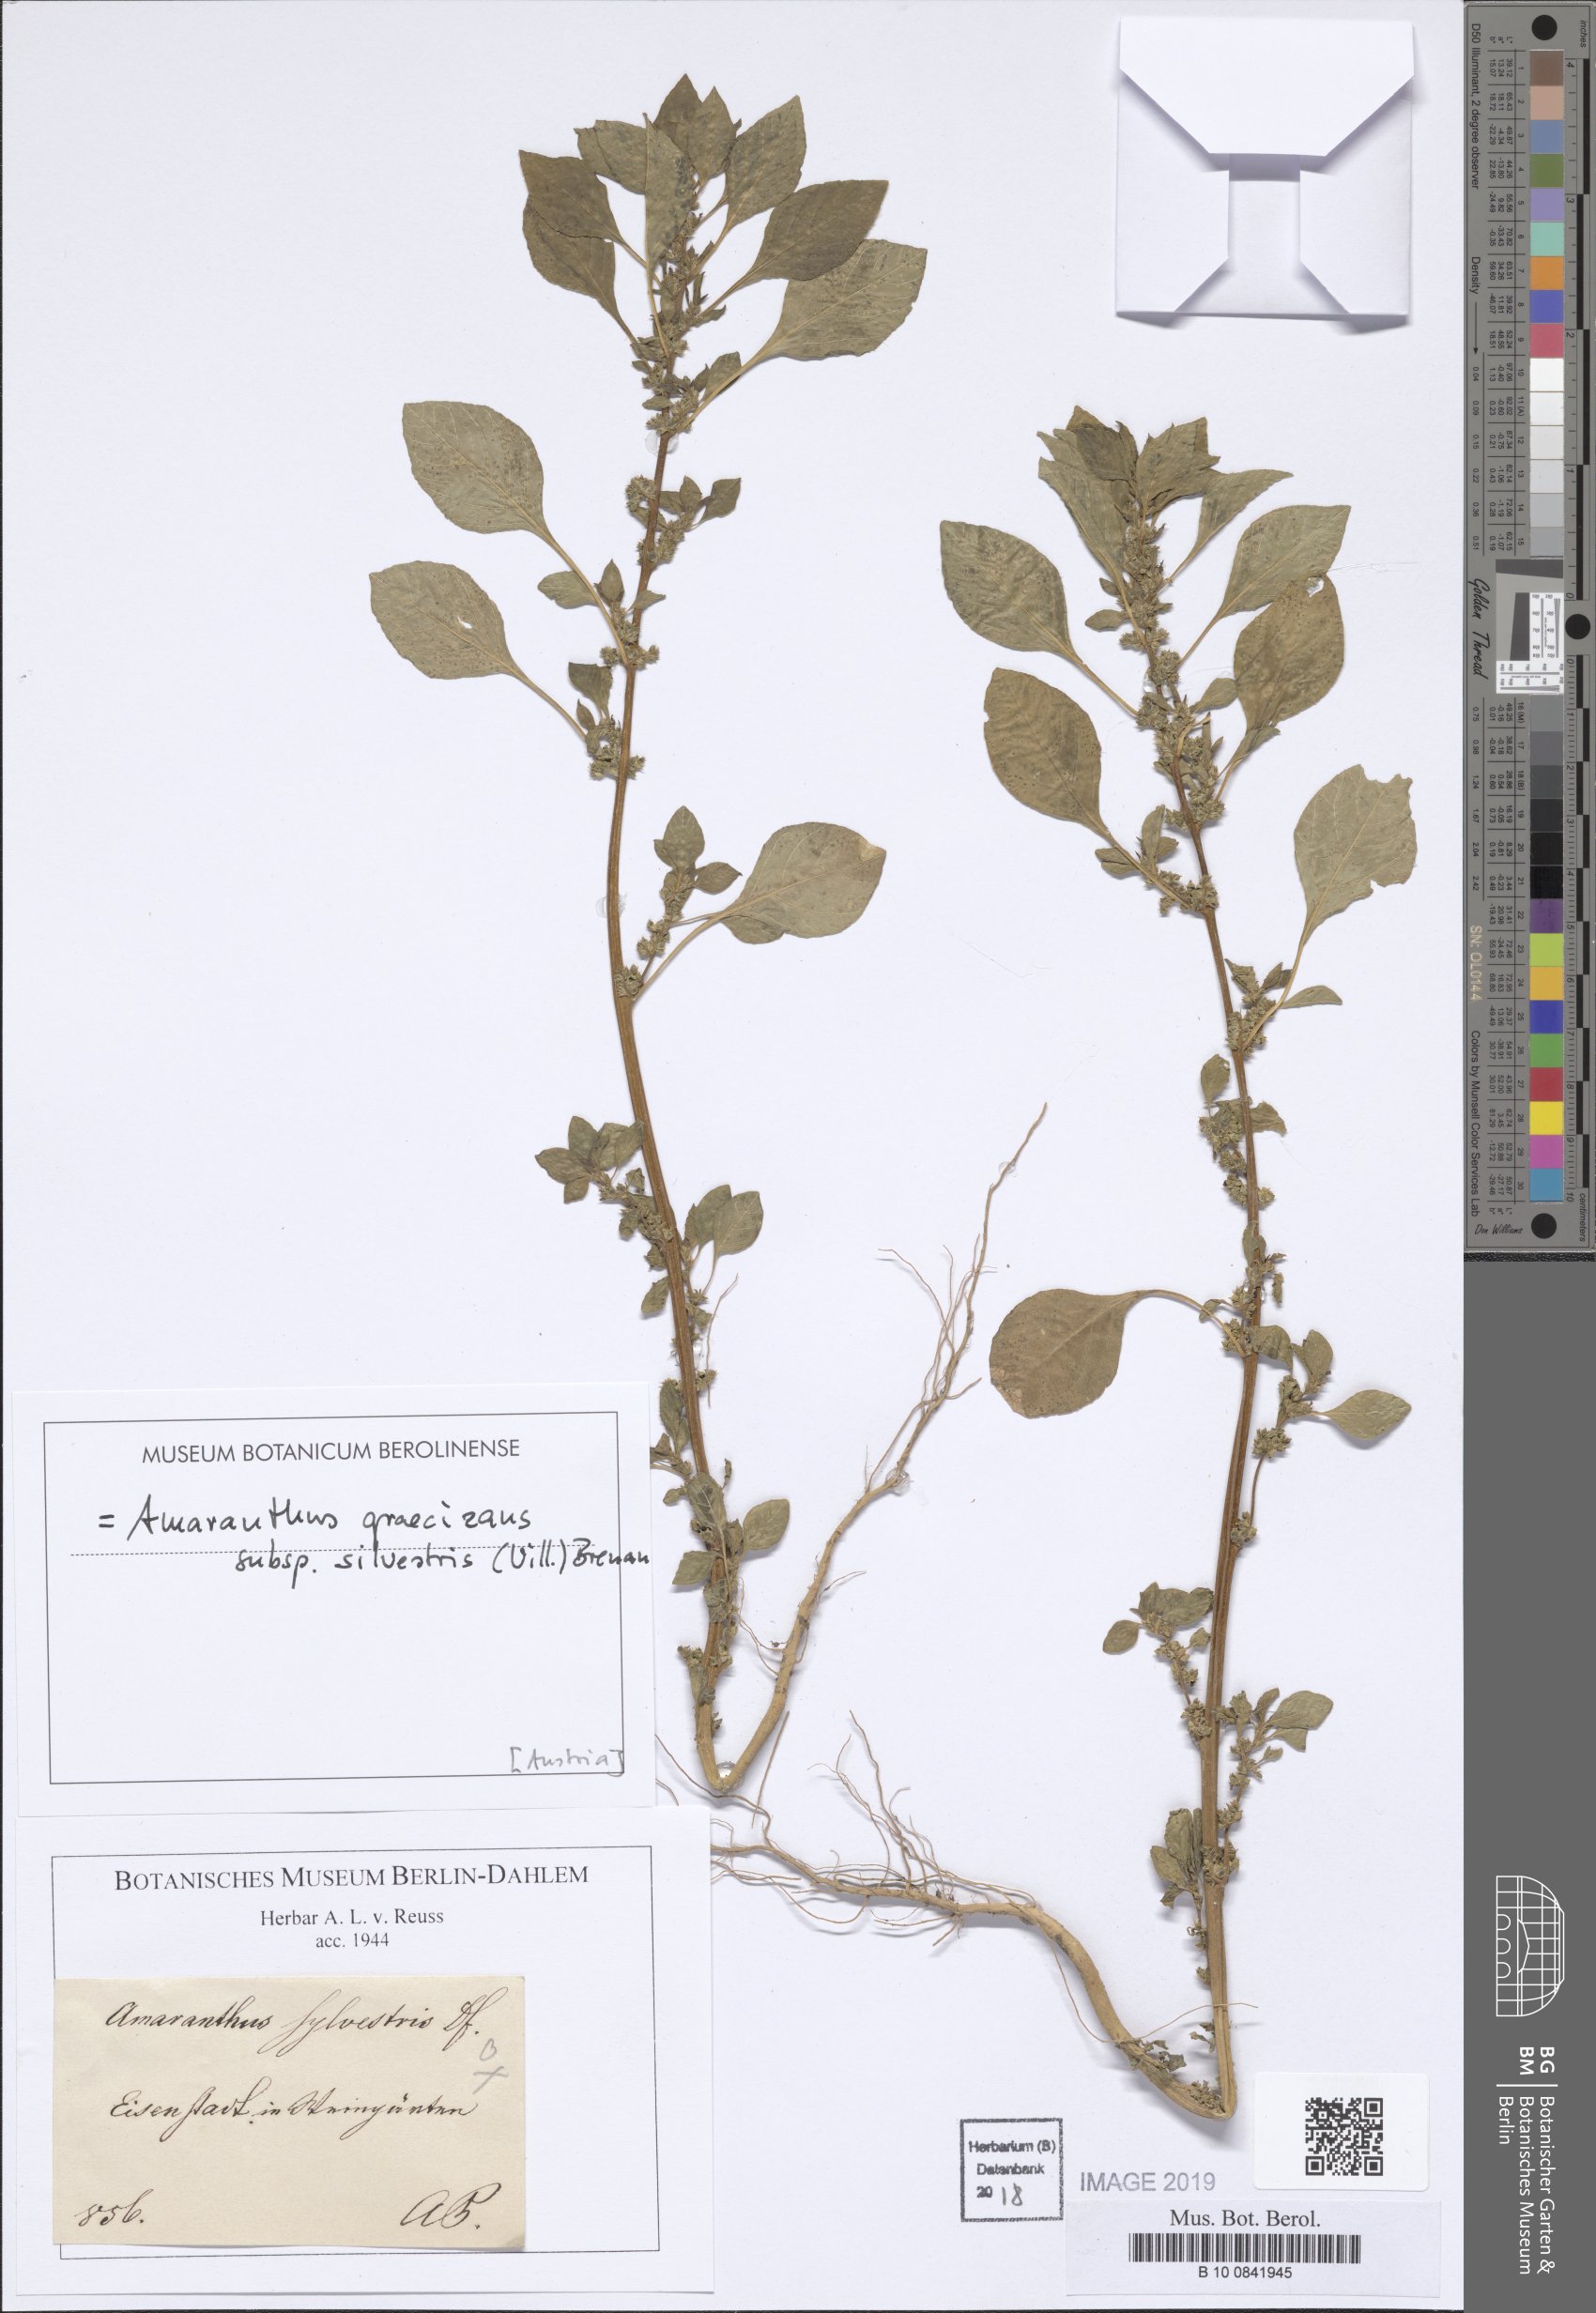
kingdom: Plantae
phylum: Tracheophyta
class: Magnoliopsida
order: Caryophyllales
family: Amaranthaceae
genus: Amaranthus
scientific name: Amaranthus graecizans
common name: Mediterranean amaranth
